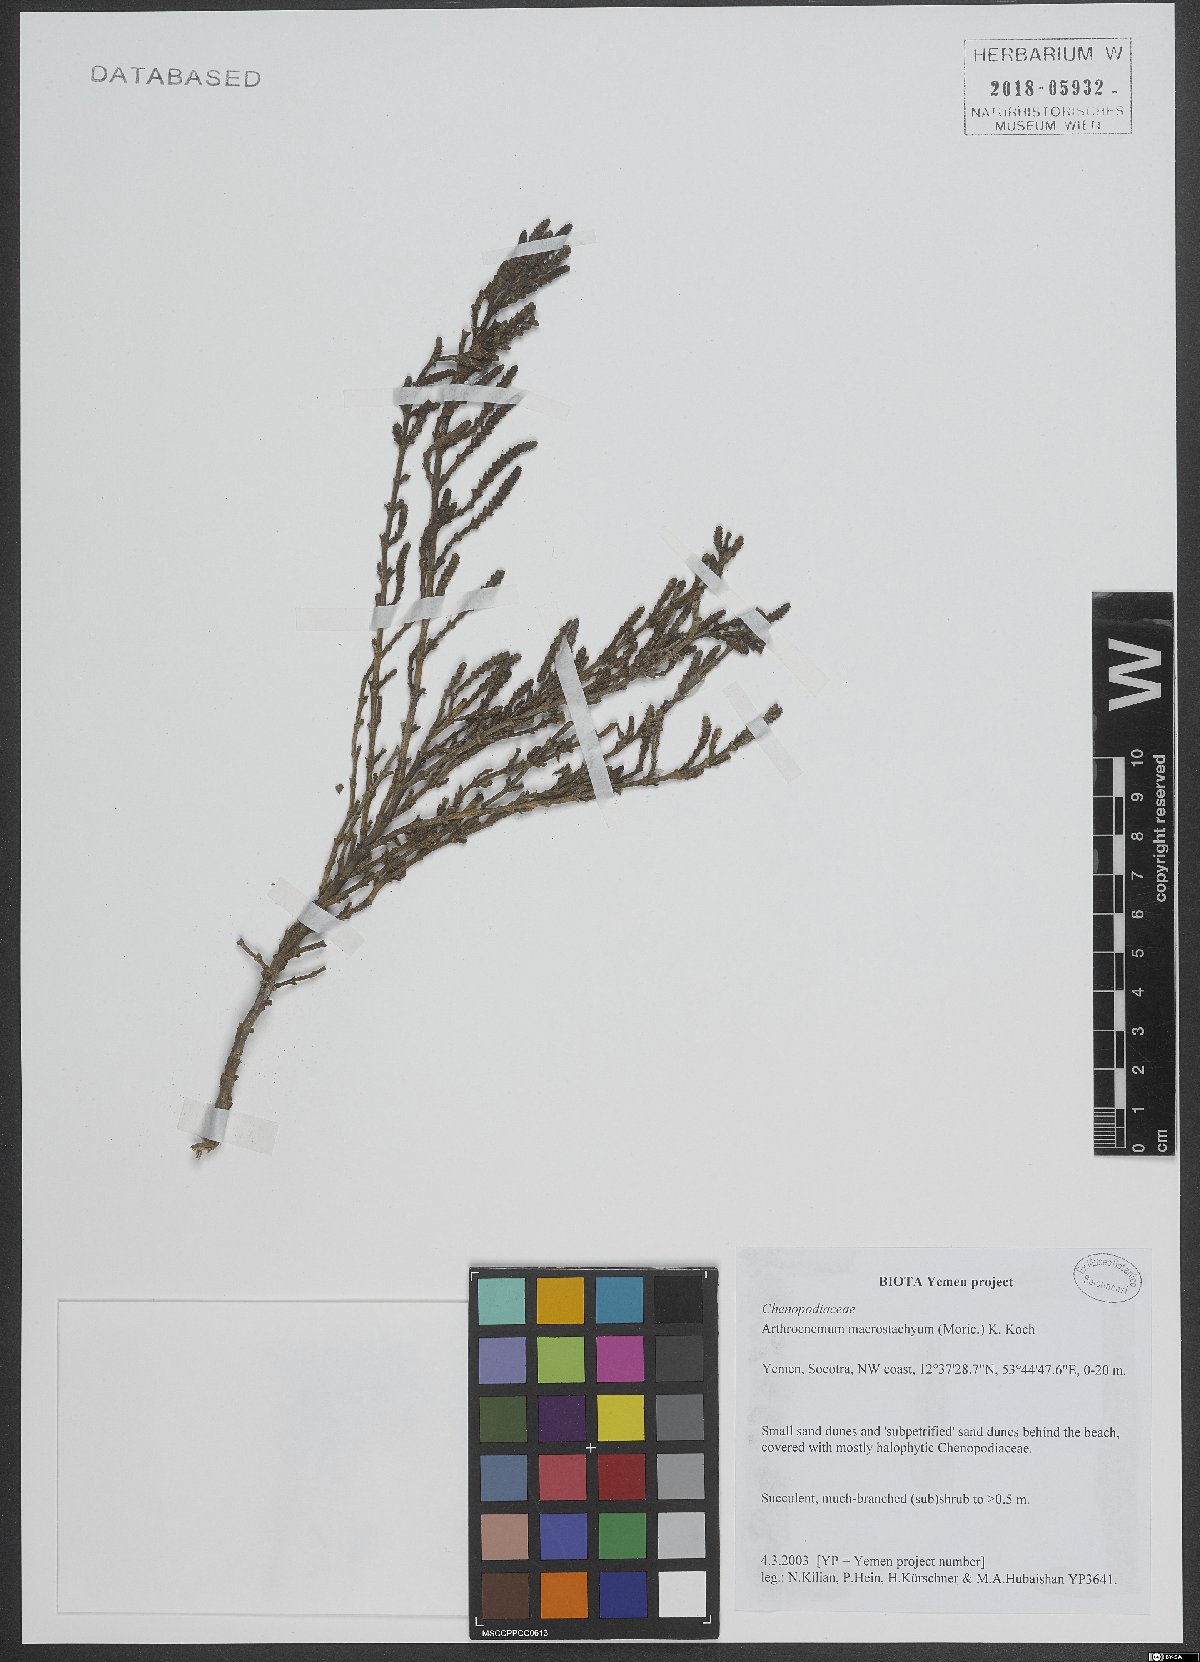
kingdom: Plantae
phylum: Tracheophyta
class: Magnoliopsida
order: Caryophyllales
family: Amaranthaceae
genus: Arthrocaulon
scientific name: Arthrocaulon macrostachyum
